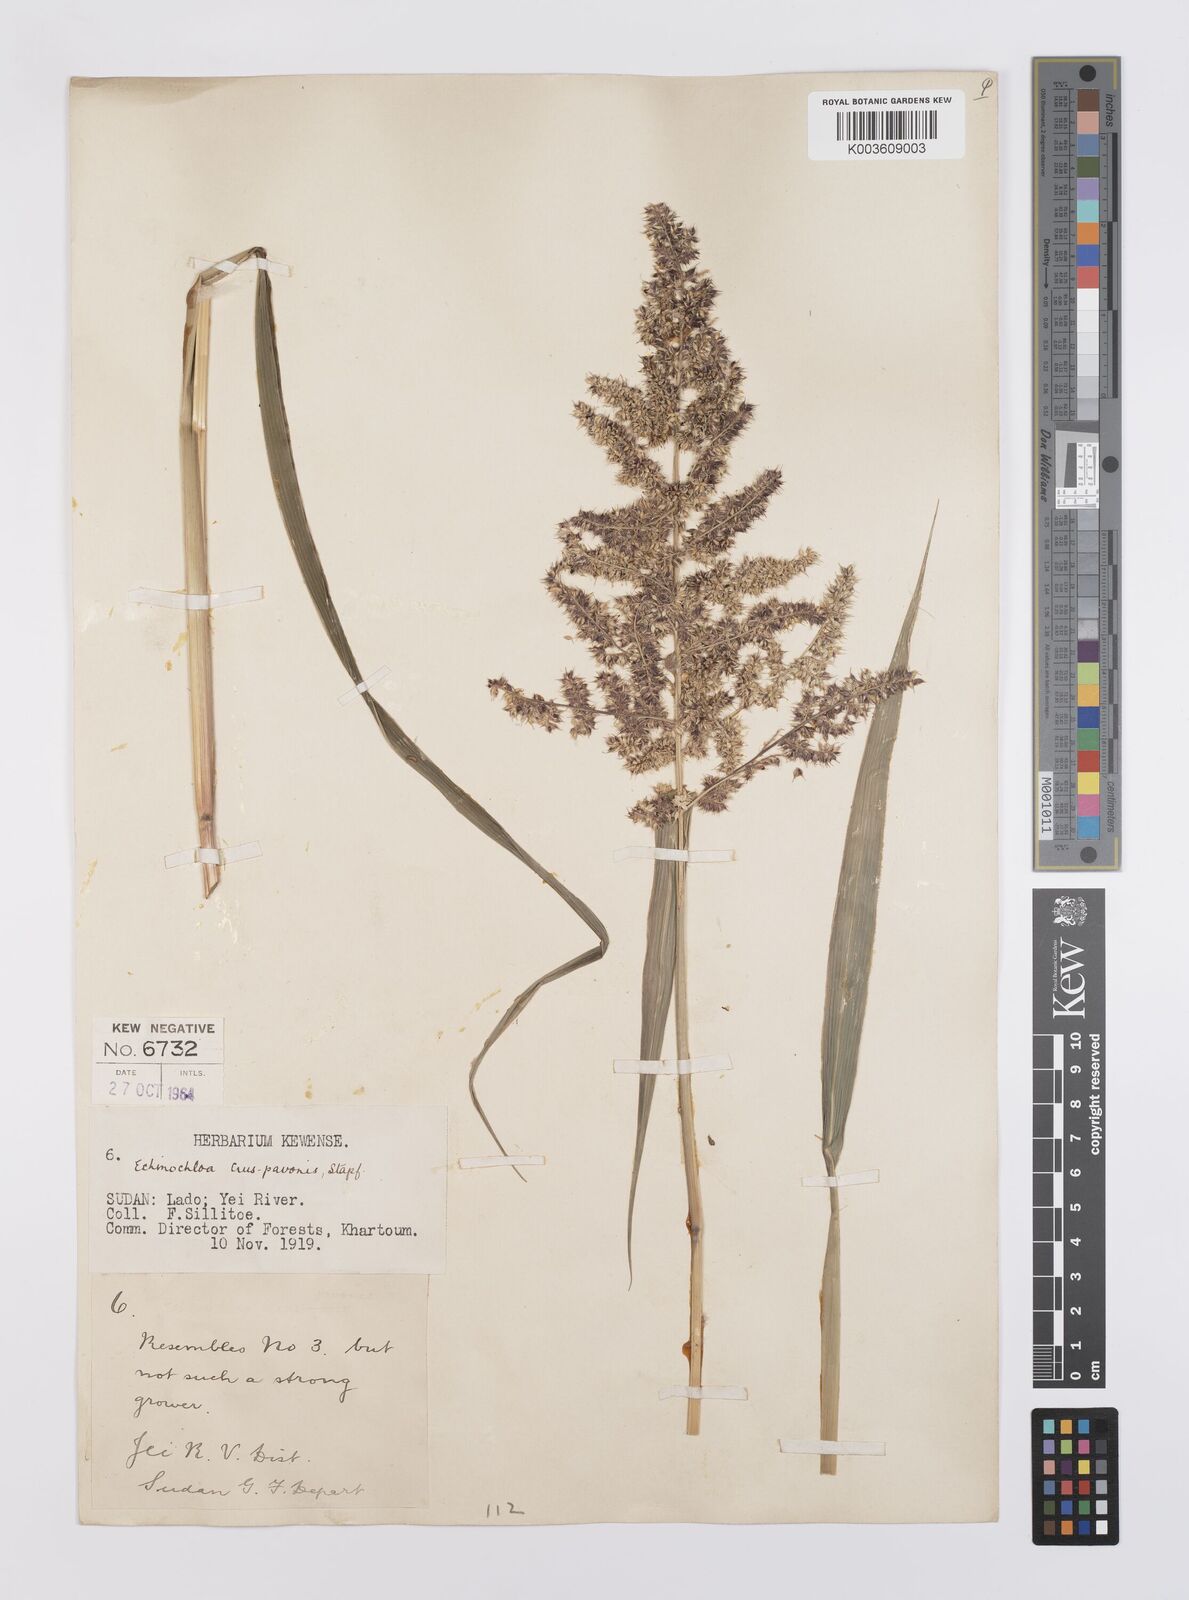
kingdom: Plantae
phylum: Tracheophyta
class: Liliopsida
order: Poales
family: Poaceae
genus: Echinochloa
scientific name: Echinochloa crus-pavonis
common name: Gulf cockspur grass
